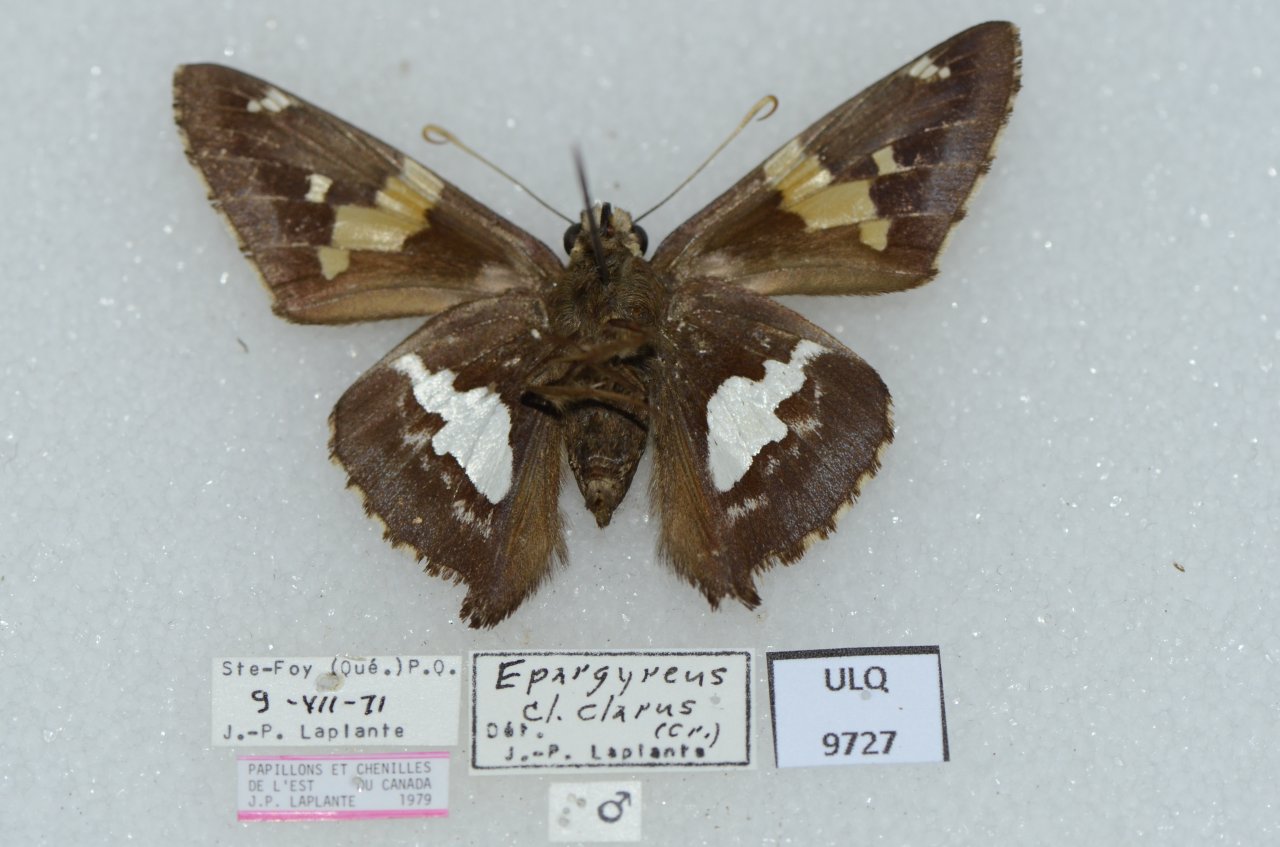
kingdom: Animalia
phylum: Arthropoda
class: Insecta
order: Lepidoptera
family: Hesperiidae
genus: Epargyreus
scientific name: Epargyreus clarus
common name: Silver-spotted Skipper
